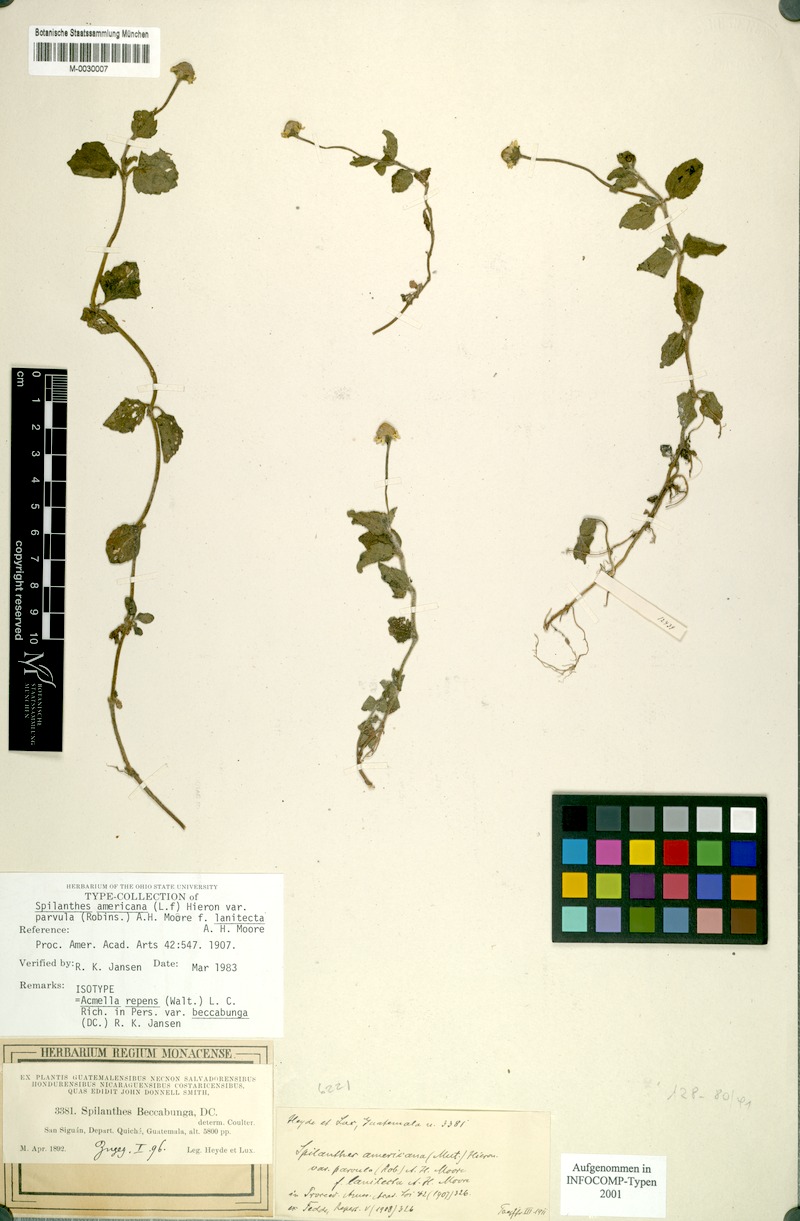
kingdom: Plantae
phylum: Tracheophyta
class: Magnoliopsida
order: Asterales
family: Asteraceae
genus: Acmella
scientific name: Acmella repens
